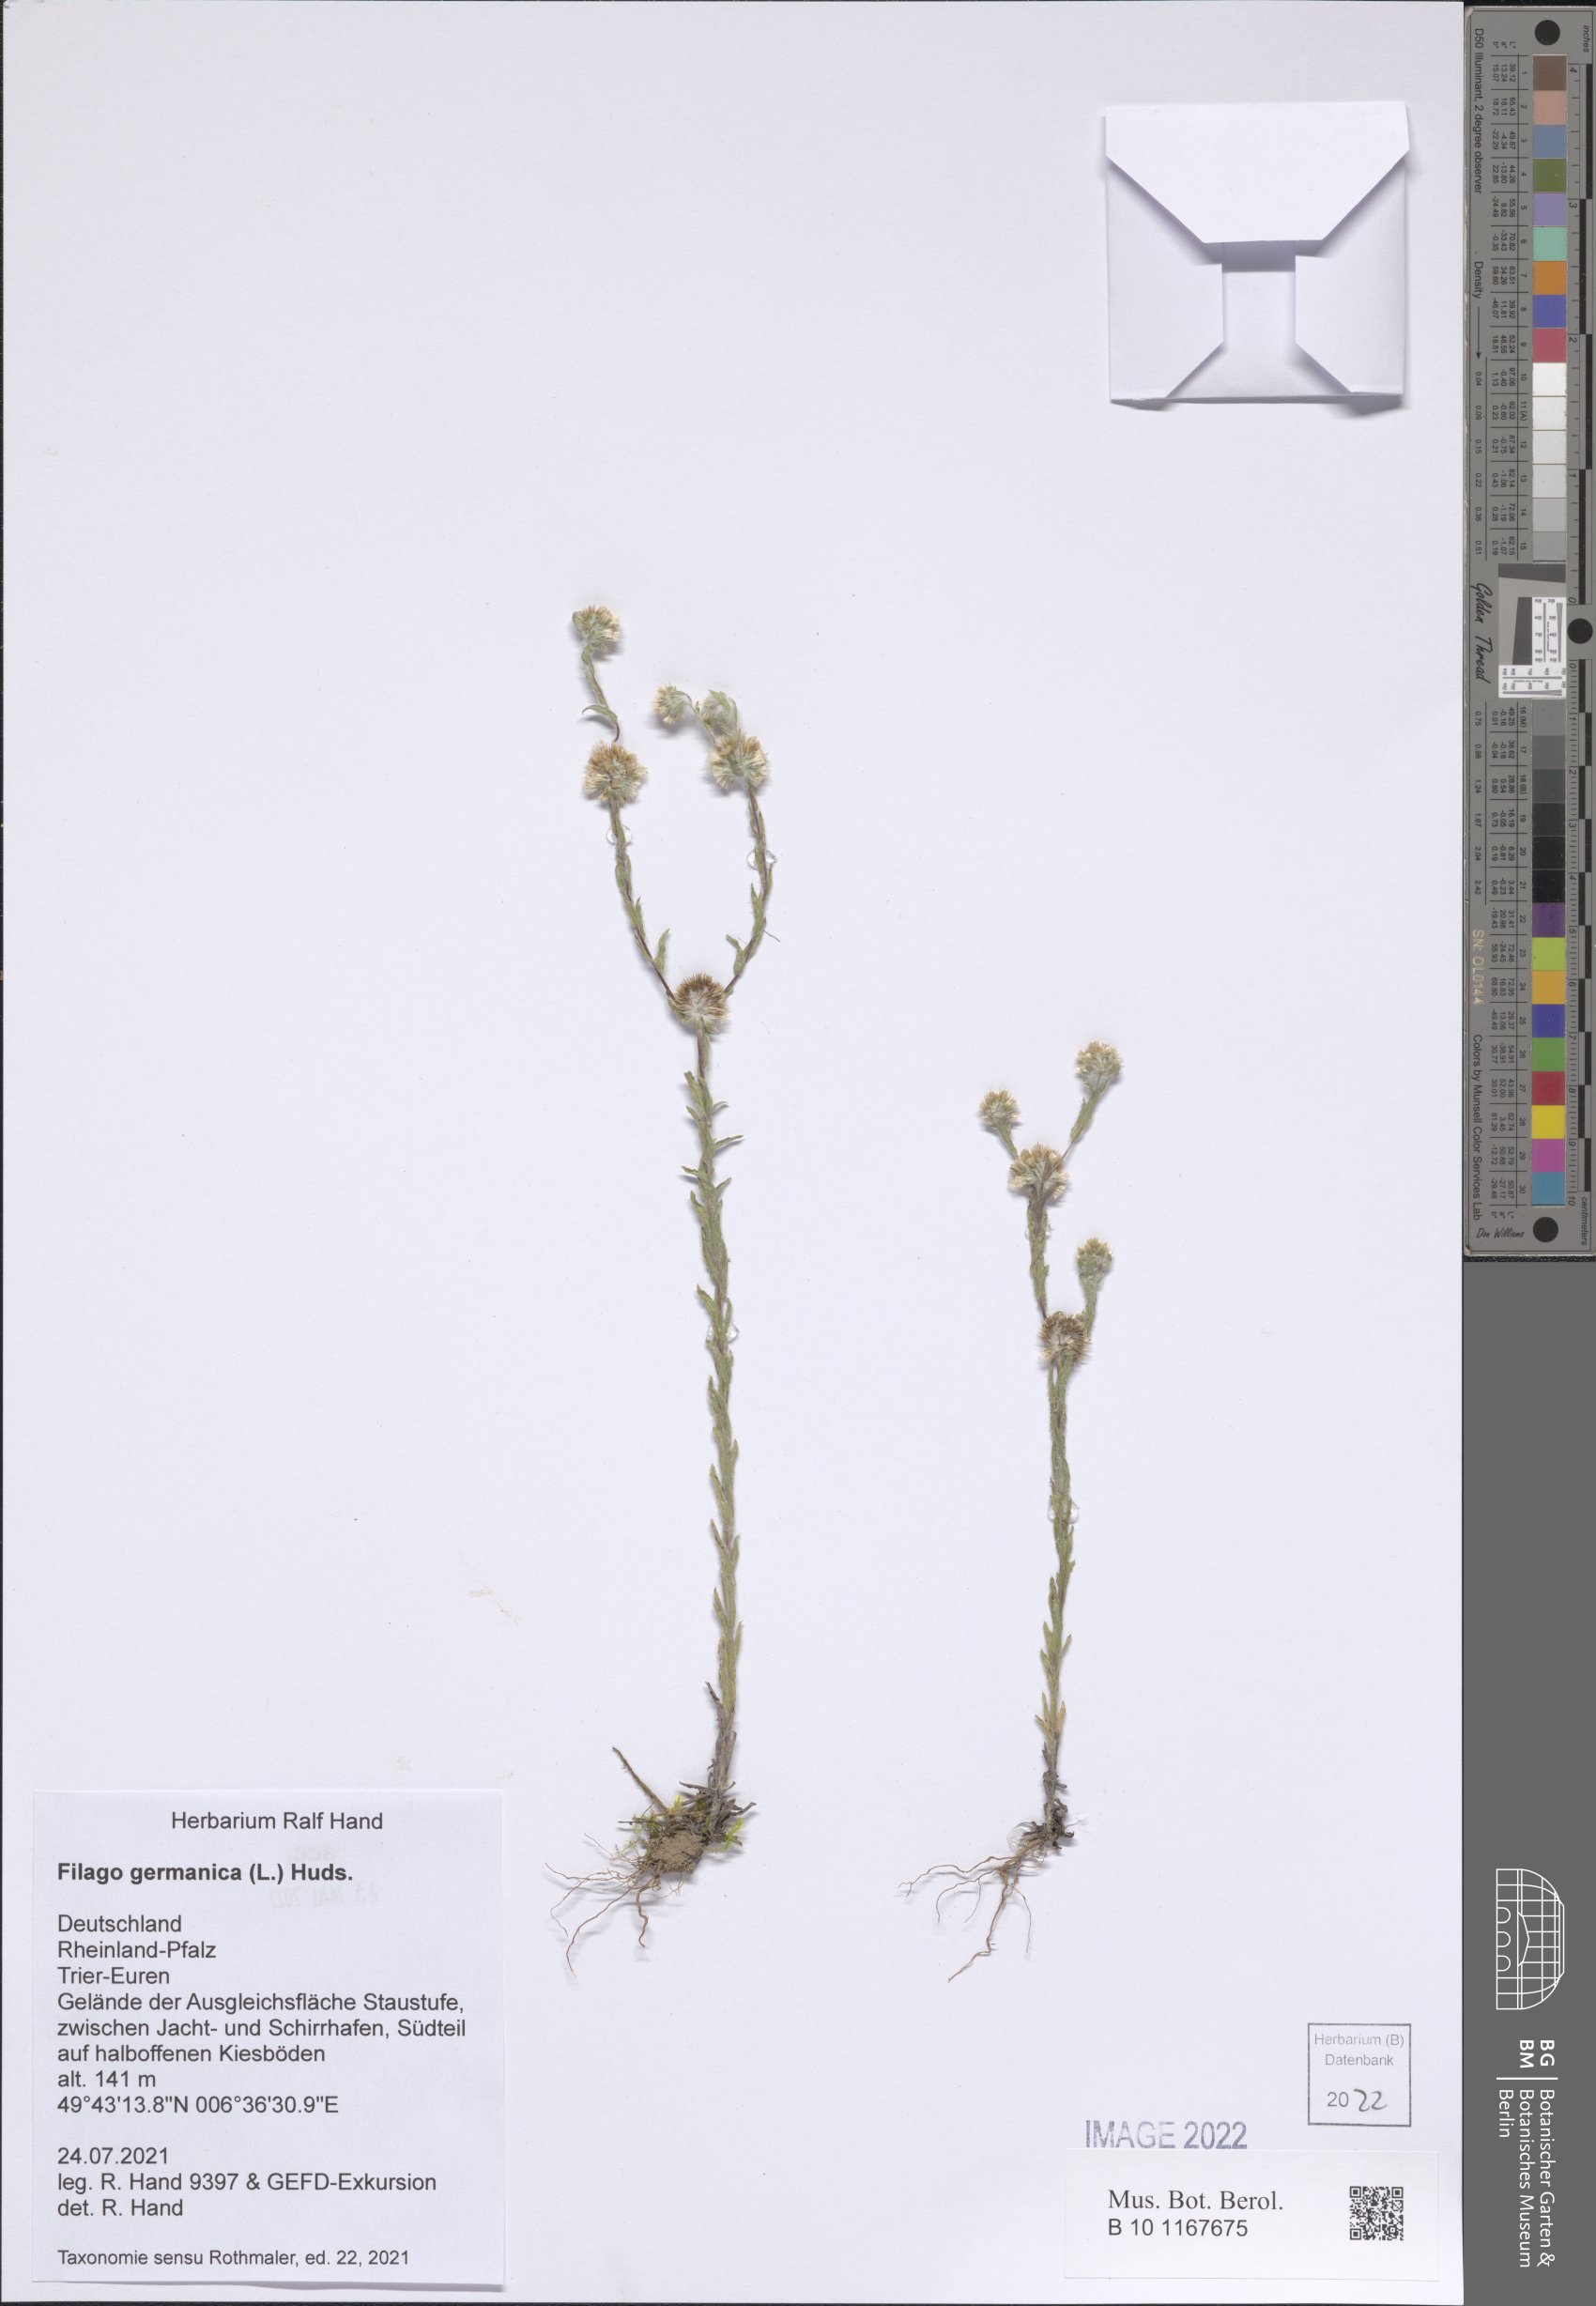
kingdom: Plantae
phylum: Tracheophyta
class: Magnoliopsida
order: Asterales
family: Asteraceae
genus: Filago
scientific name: Filago germanica
